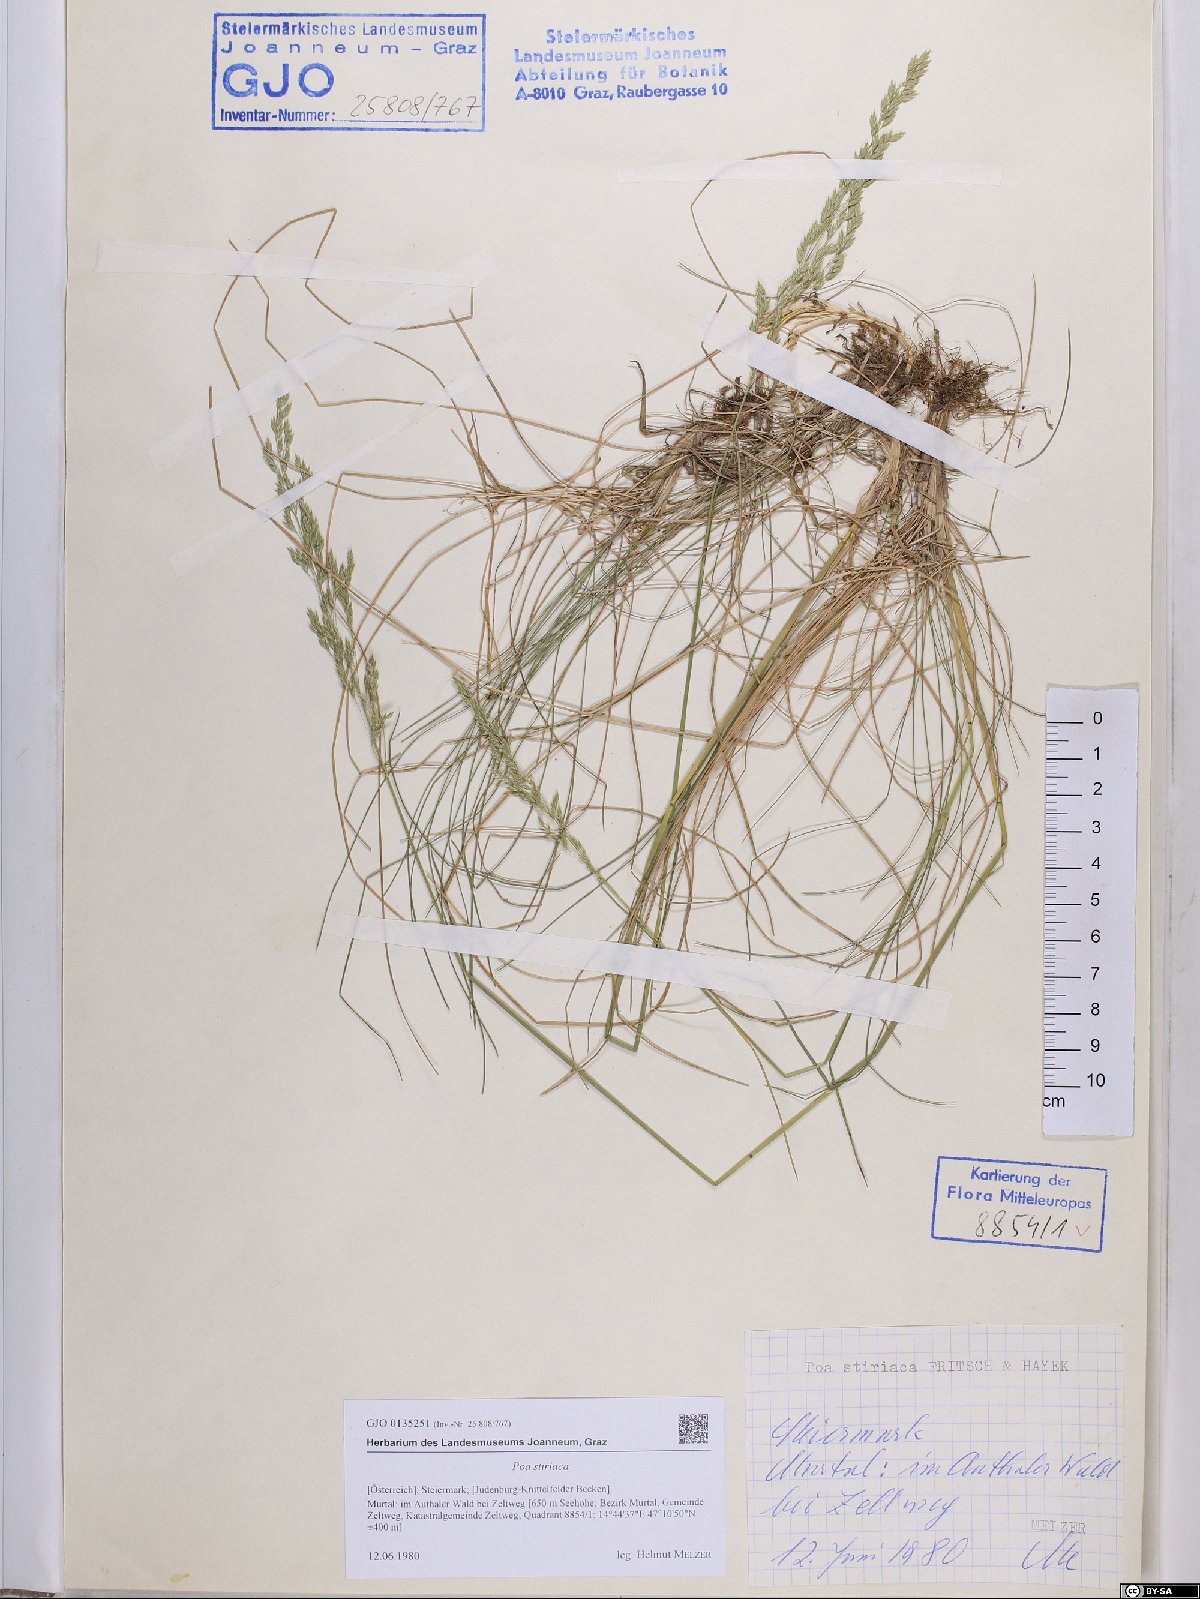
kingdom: Plantae
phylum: Tracheophyta
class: Liliopsida
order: Poales
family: Poaceae
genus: Poa
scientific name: Poa stiriaca
